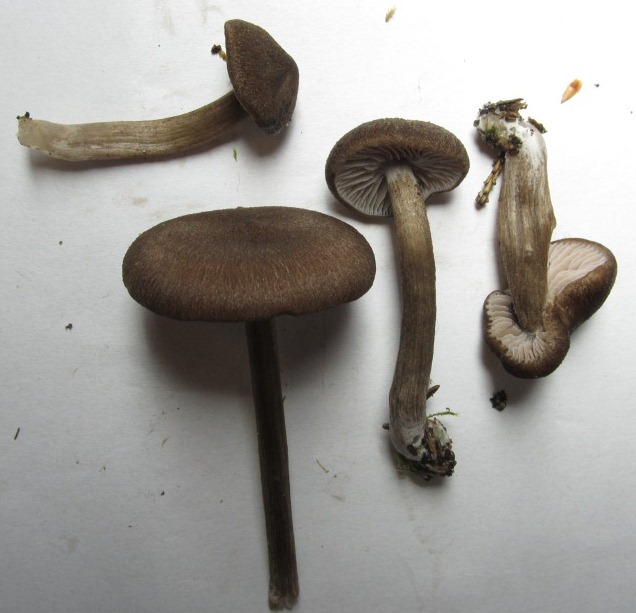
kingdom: Fungi
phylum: Basidiomycota
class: Agaricomycetes
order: Agaricales
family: Entolomataceae
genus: Entoloma
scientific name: Entoloma jubatum
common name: ruskællet rødblad
